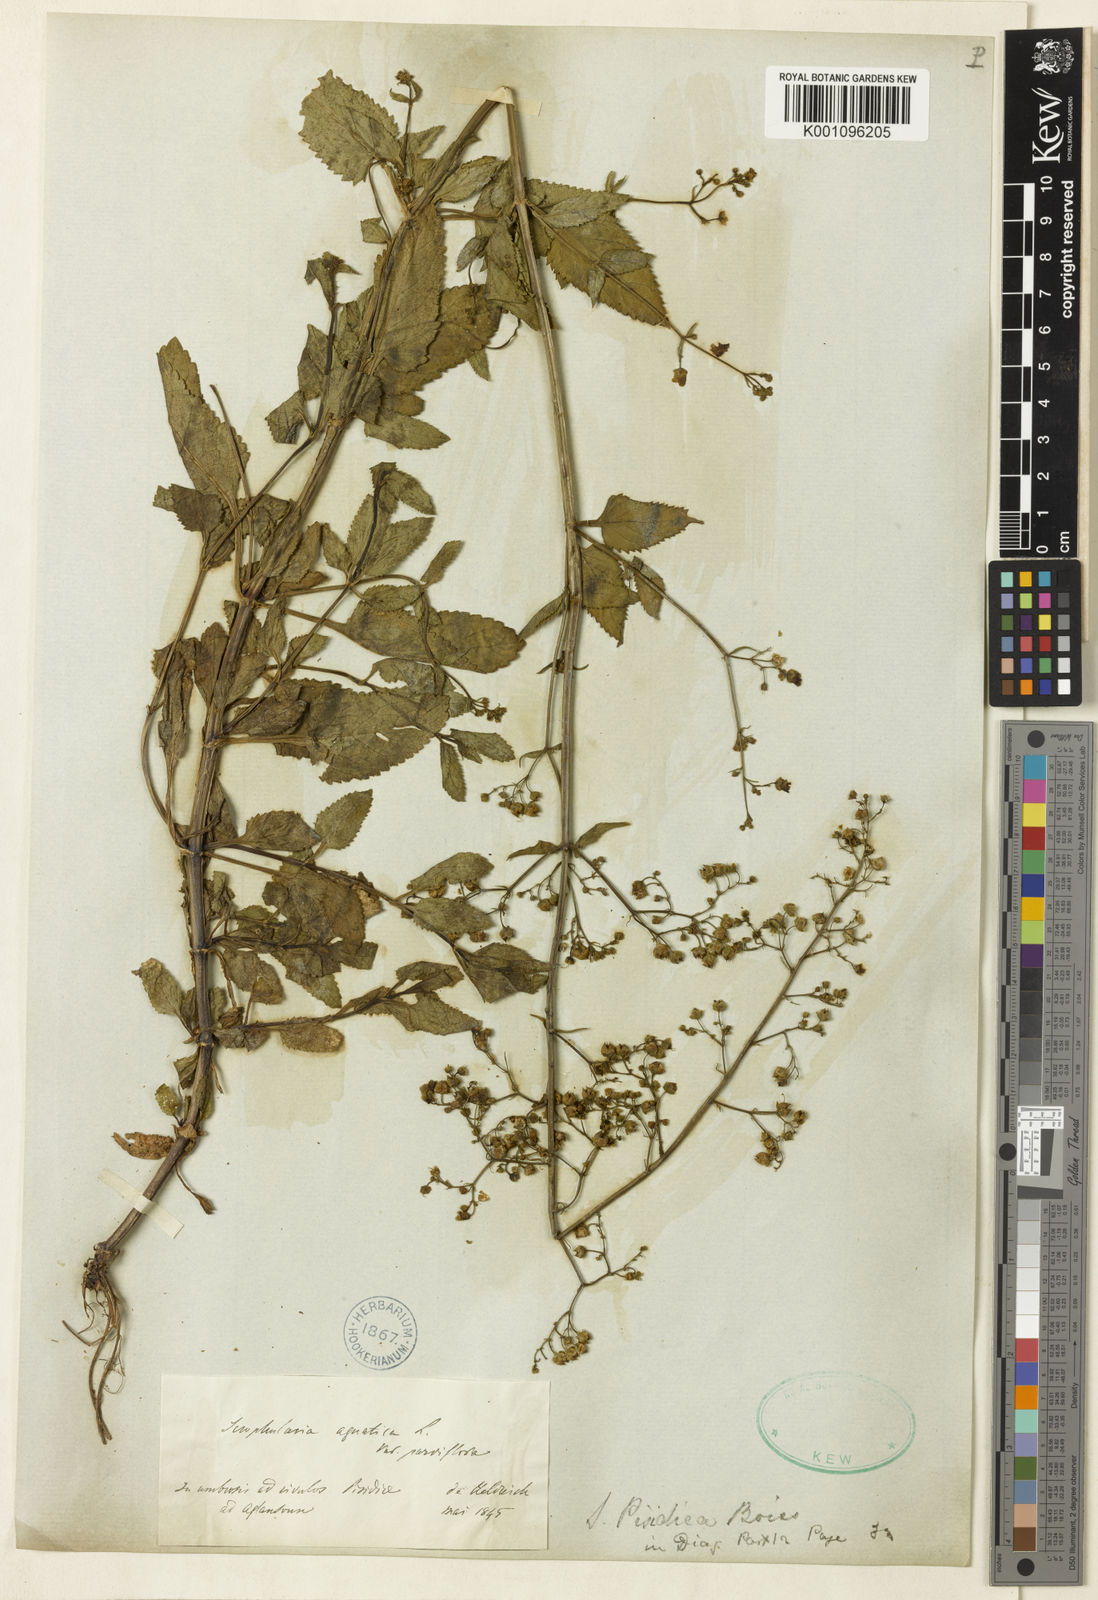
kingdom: Plantae
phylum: Tracheophyta
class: Magnoliopsida
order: Lamiales
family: Scrophulariaceae
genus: Scrophularia
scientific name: Scrophularia alata
